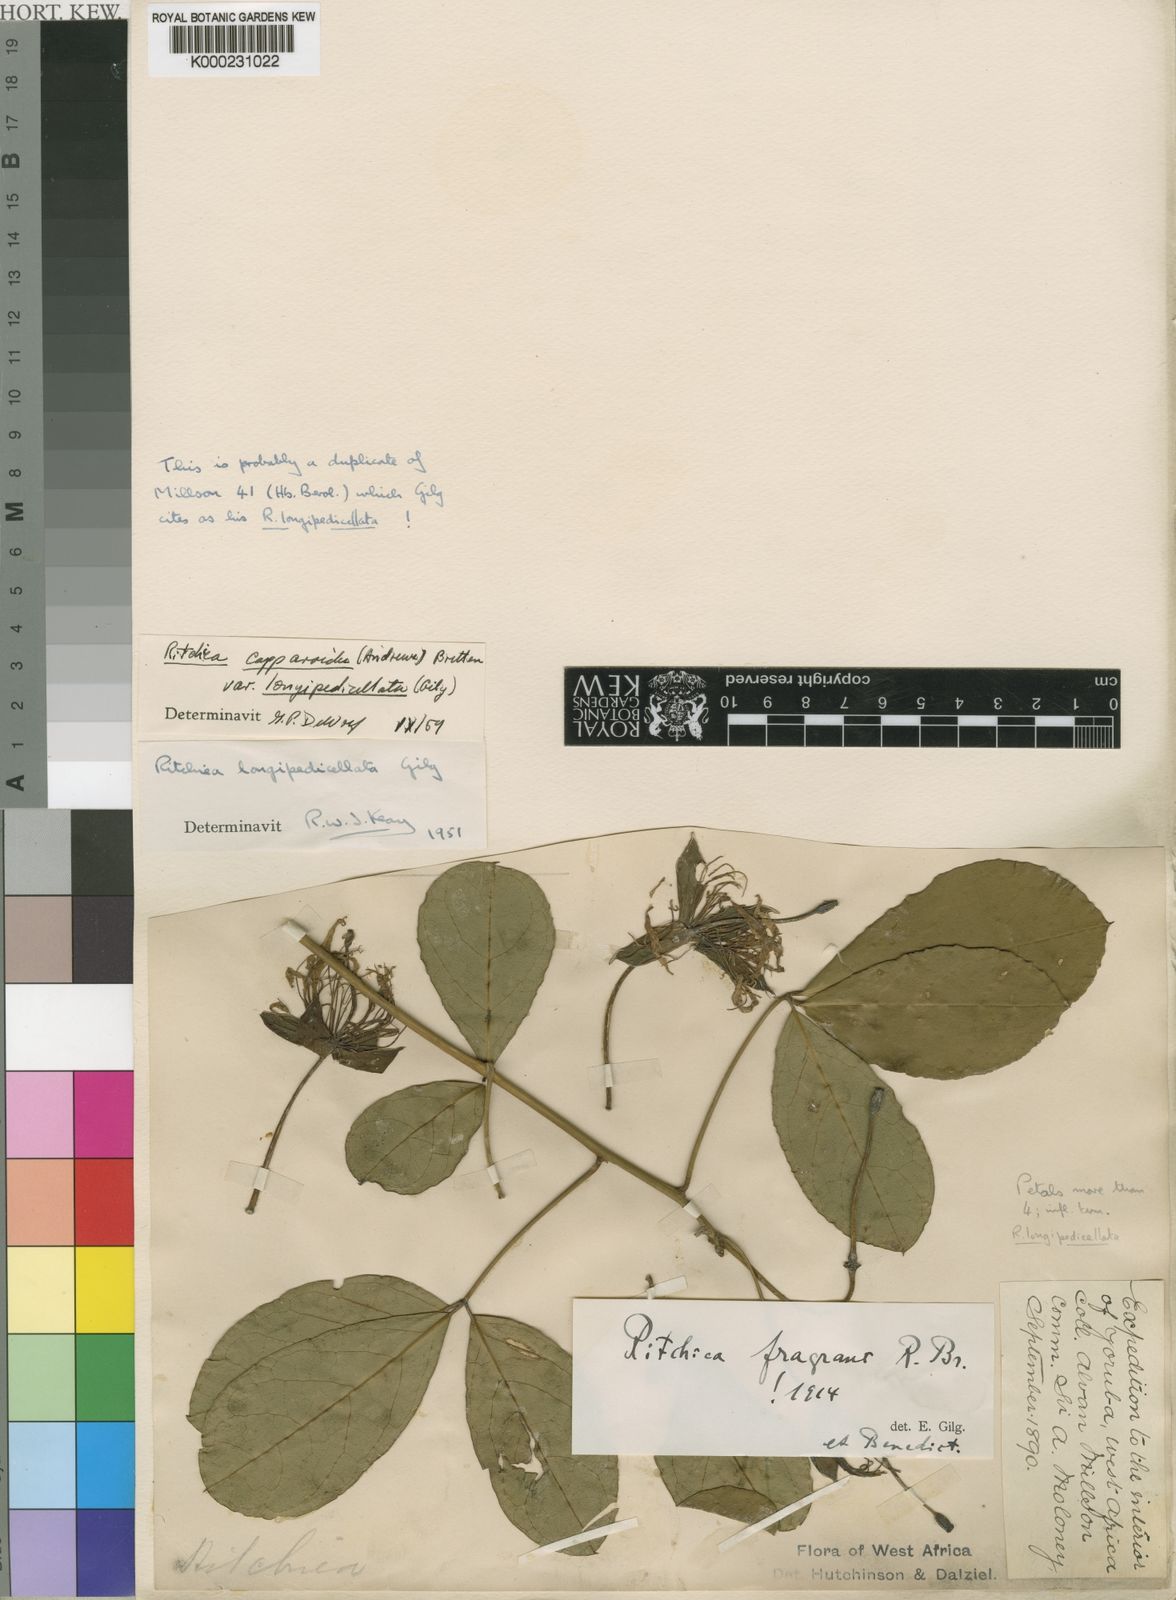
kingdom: Plantae
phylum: Tracheophyta
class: Magnoliopsida
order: Brassicales
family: Capparaceae
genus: Ritchiea
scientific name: Ritchiea capparoides
